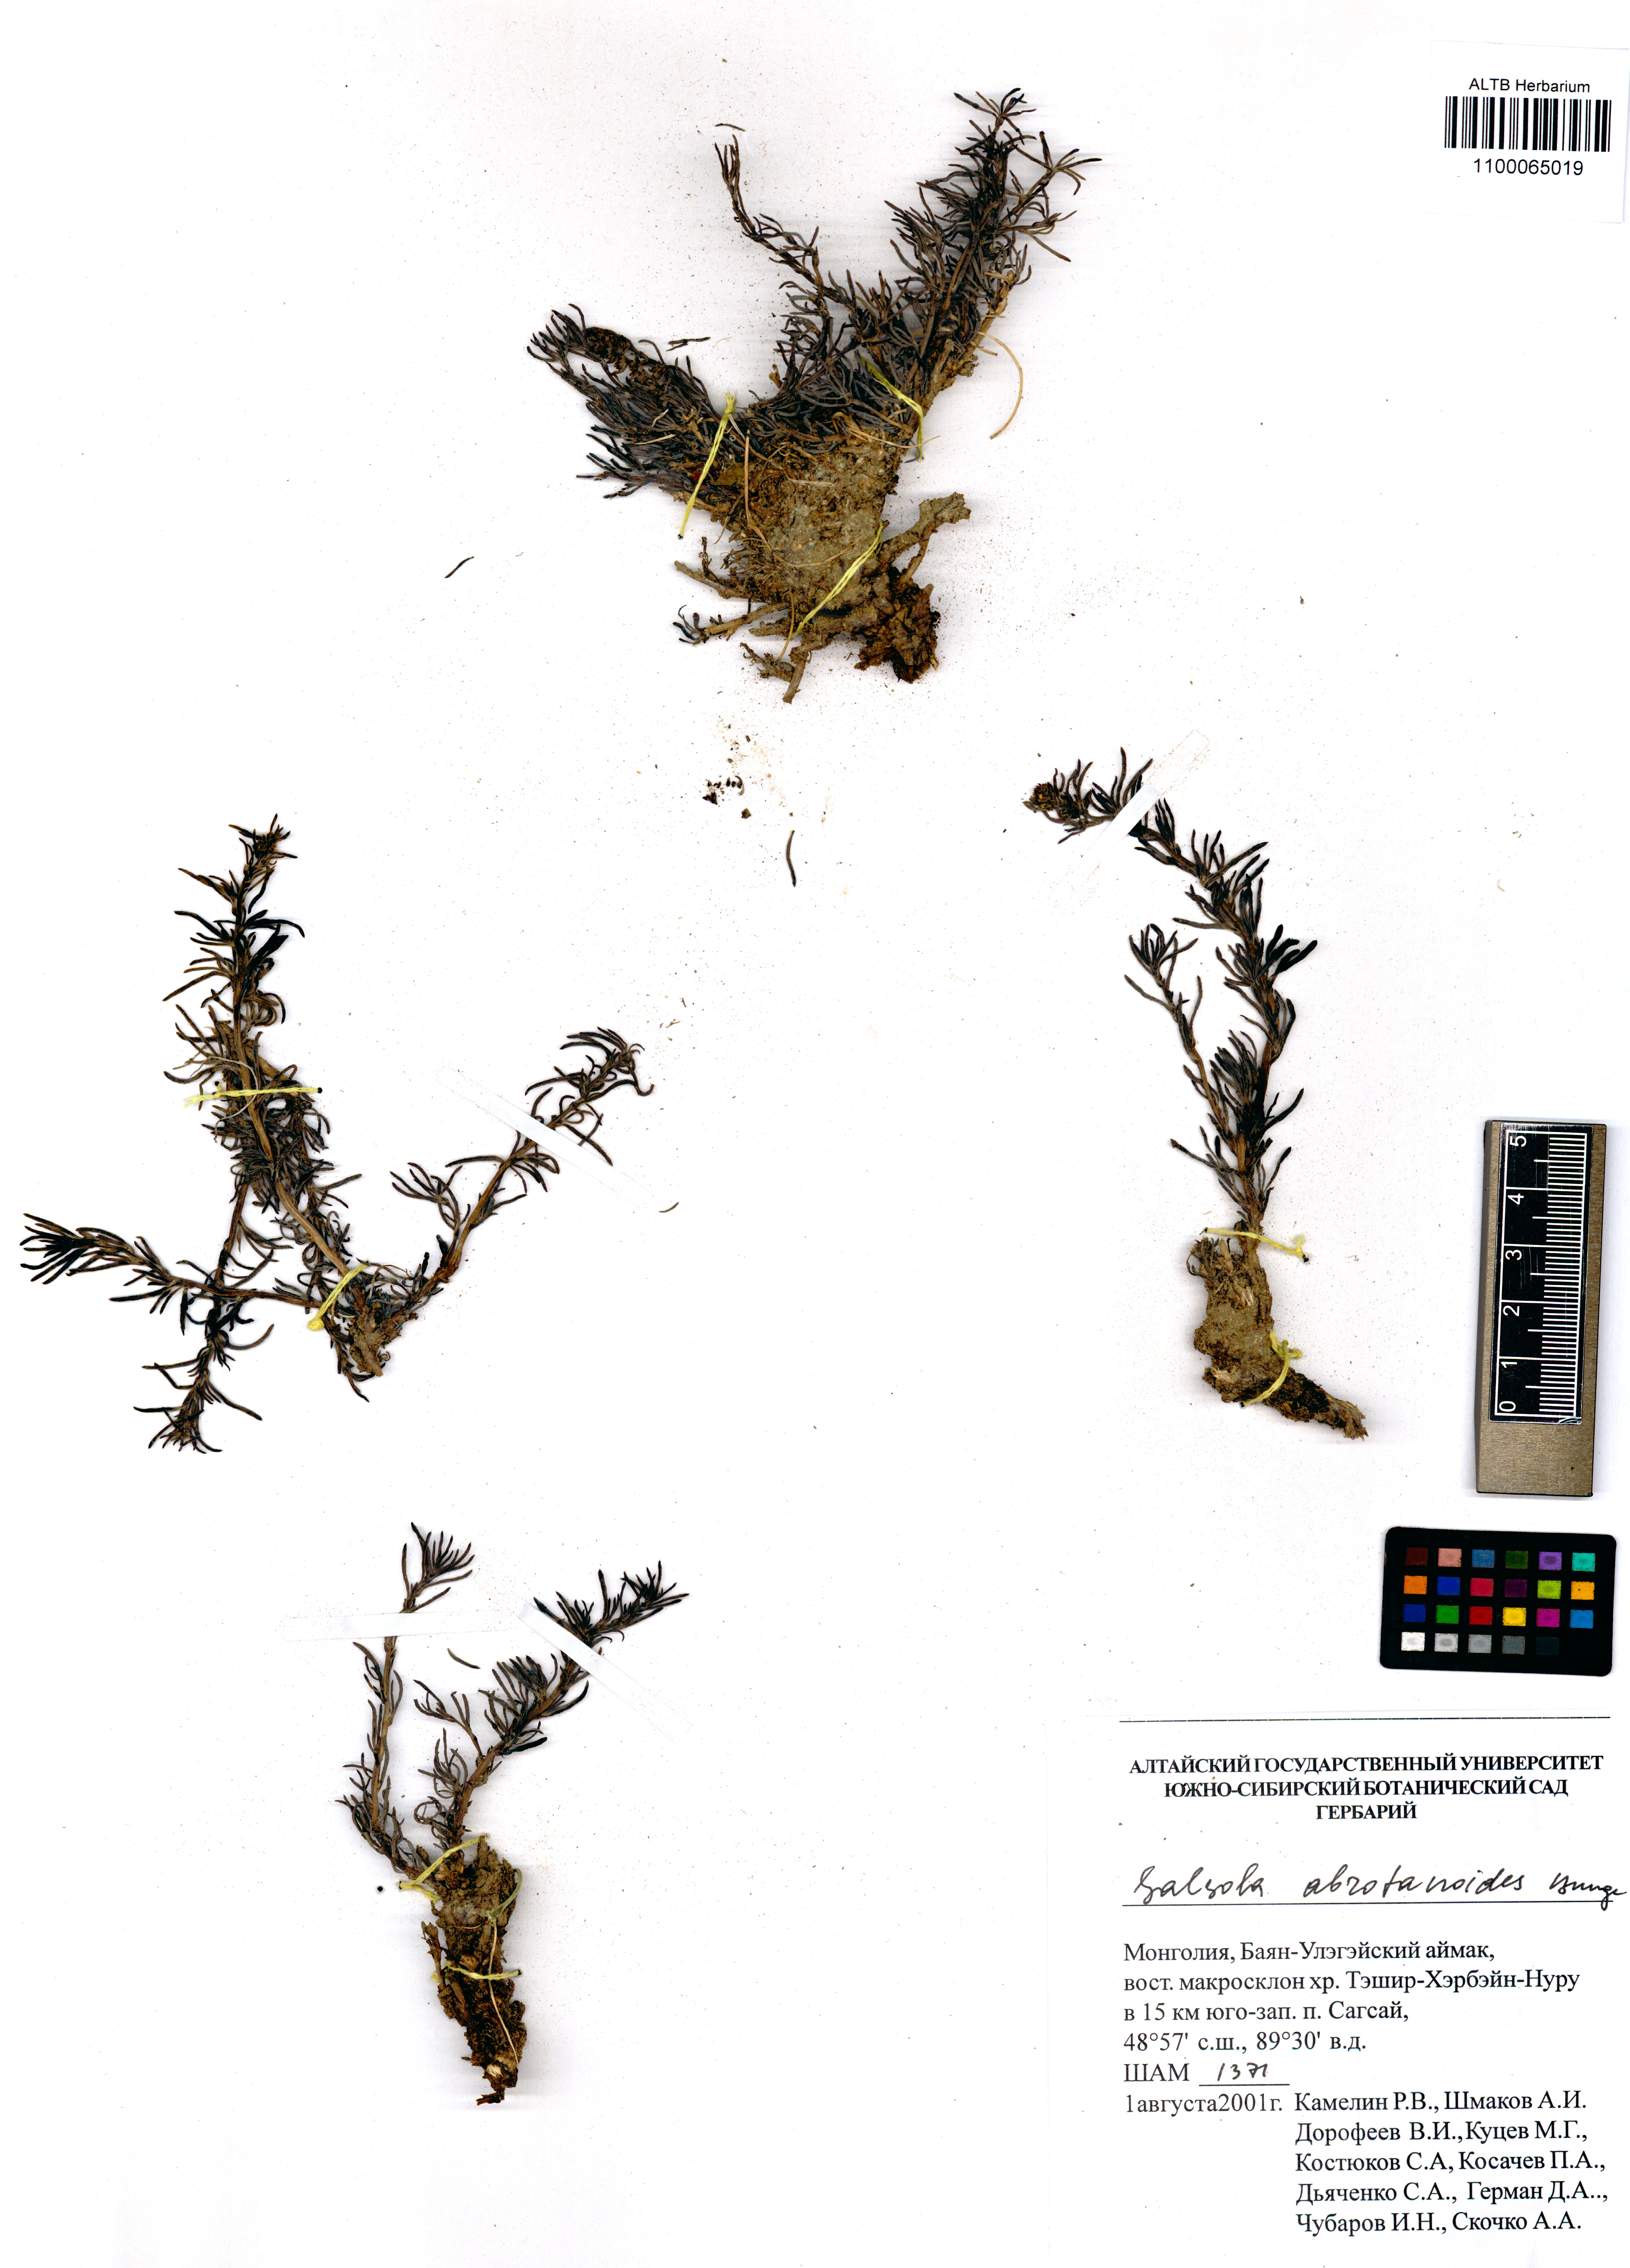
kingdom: Plantae
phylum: Tracheophyta
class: Magnoliopsida
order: Caryophyllales
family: Amaranthaceae
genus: Oreosalsola
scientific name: Oreosalsola abrotanoides
